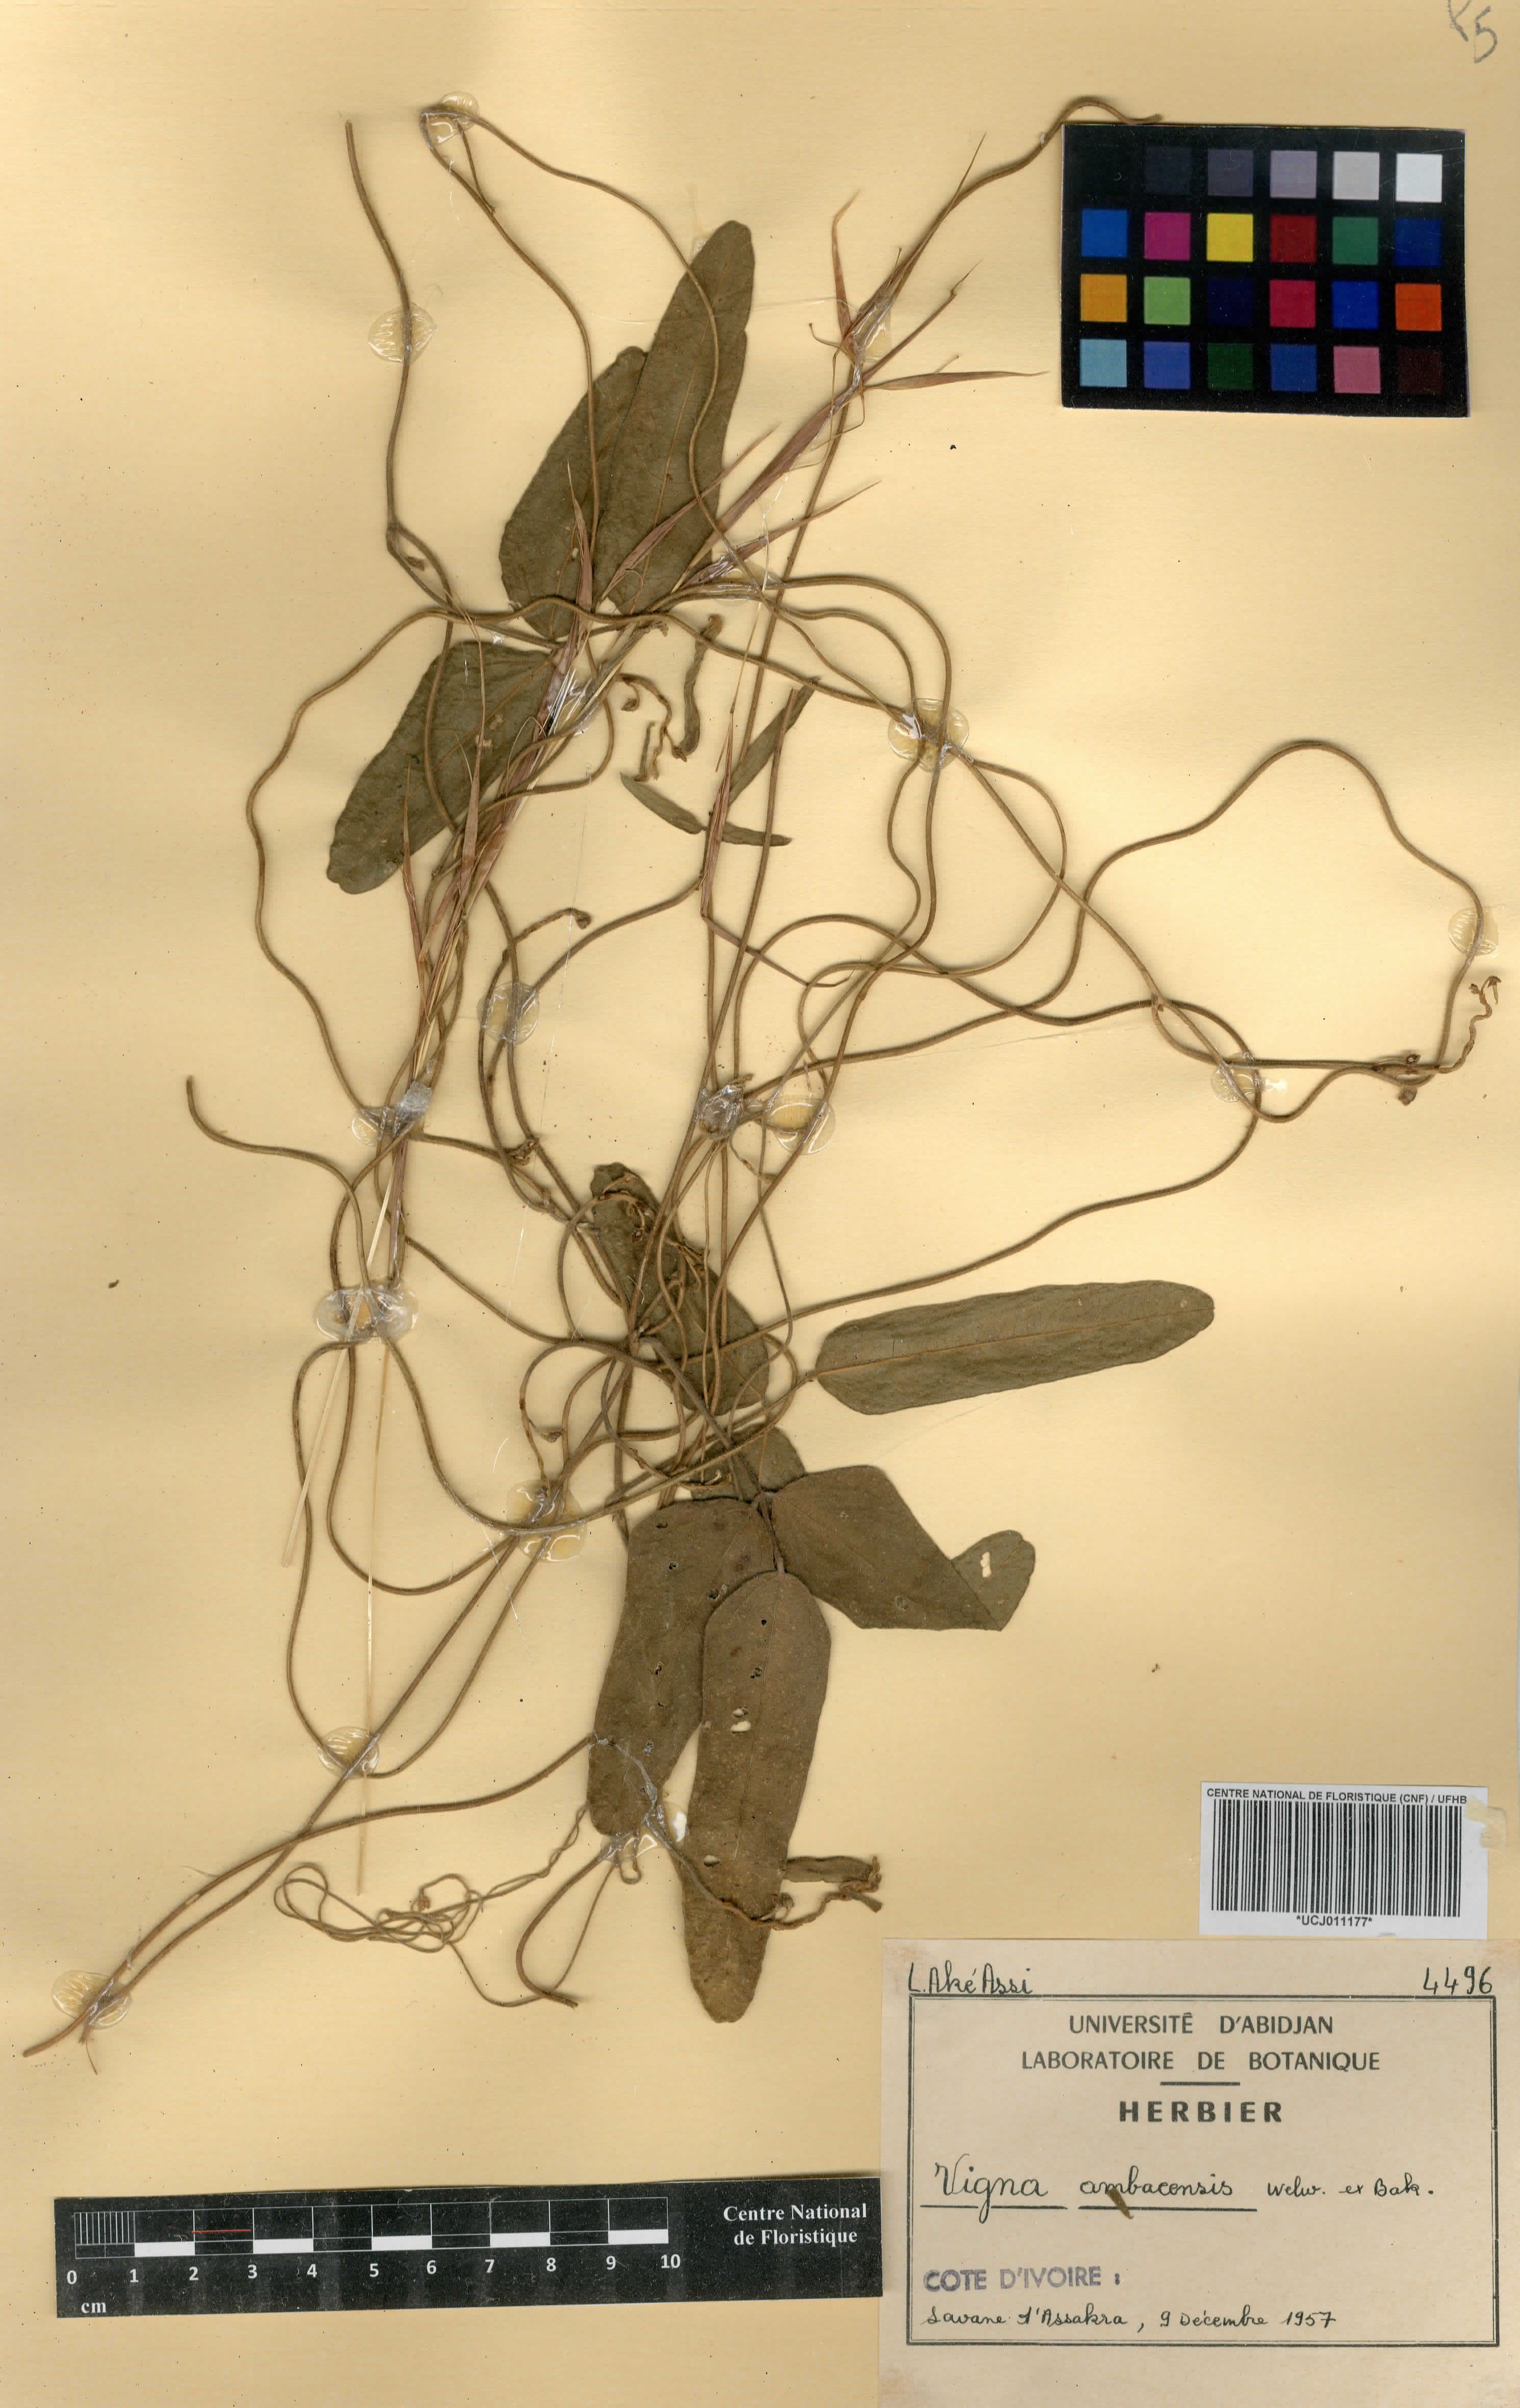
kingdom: Plantae
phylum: Tracheophyta
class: Magnoliopsida
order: Fabales
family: Fabaceae
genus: Vigna
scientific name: Vigna ambacensis
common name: Tsarkiyan zomo
